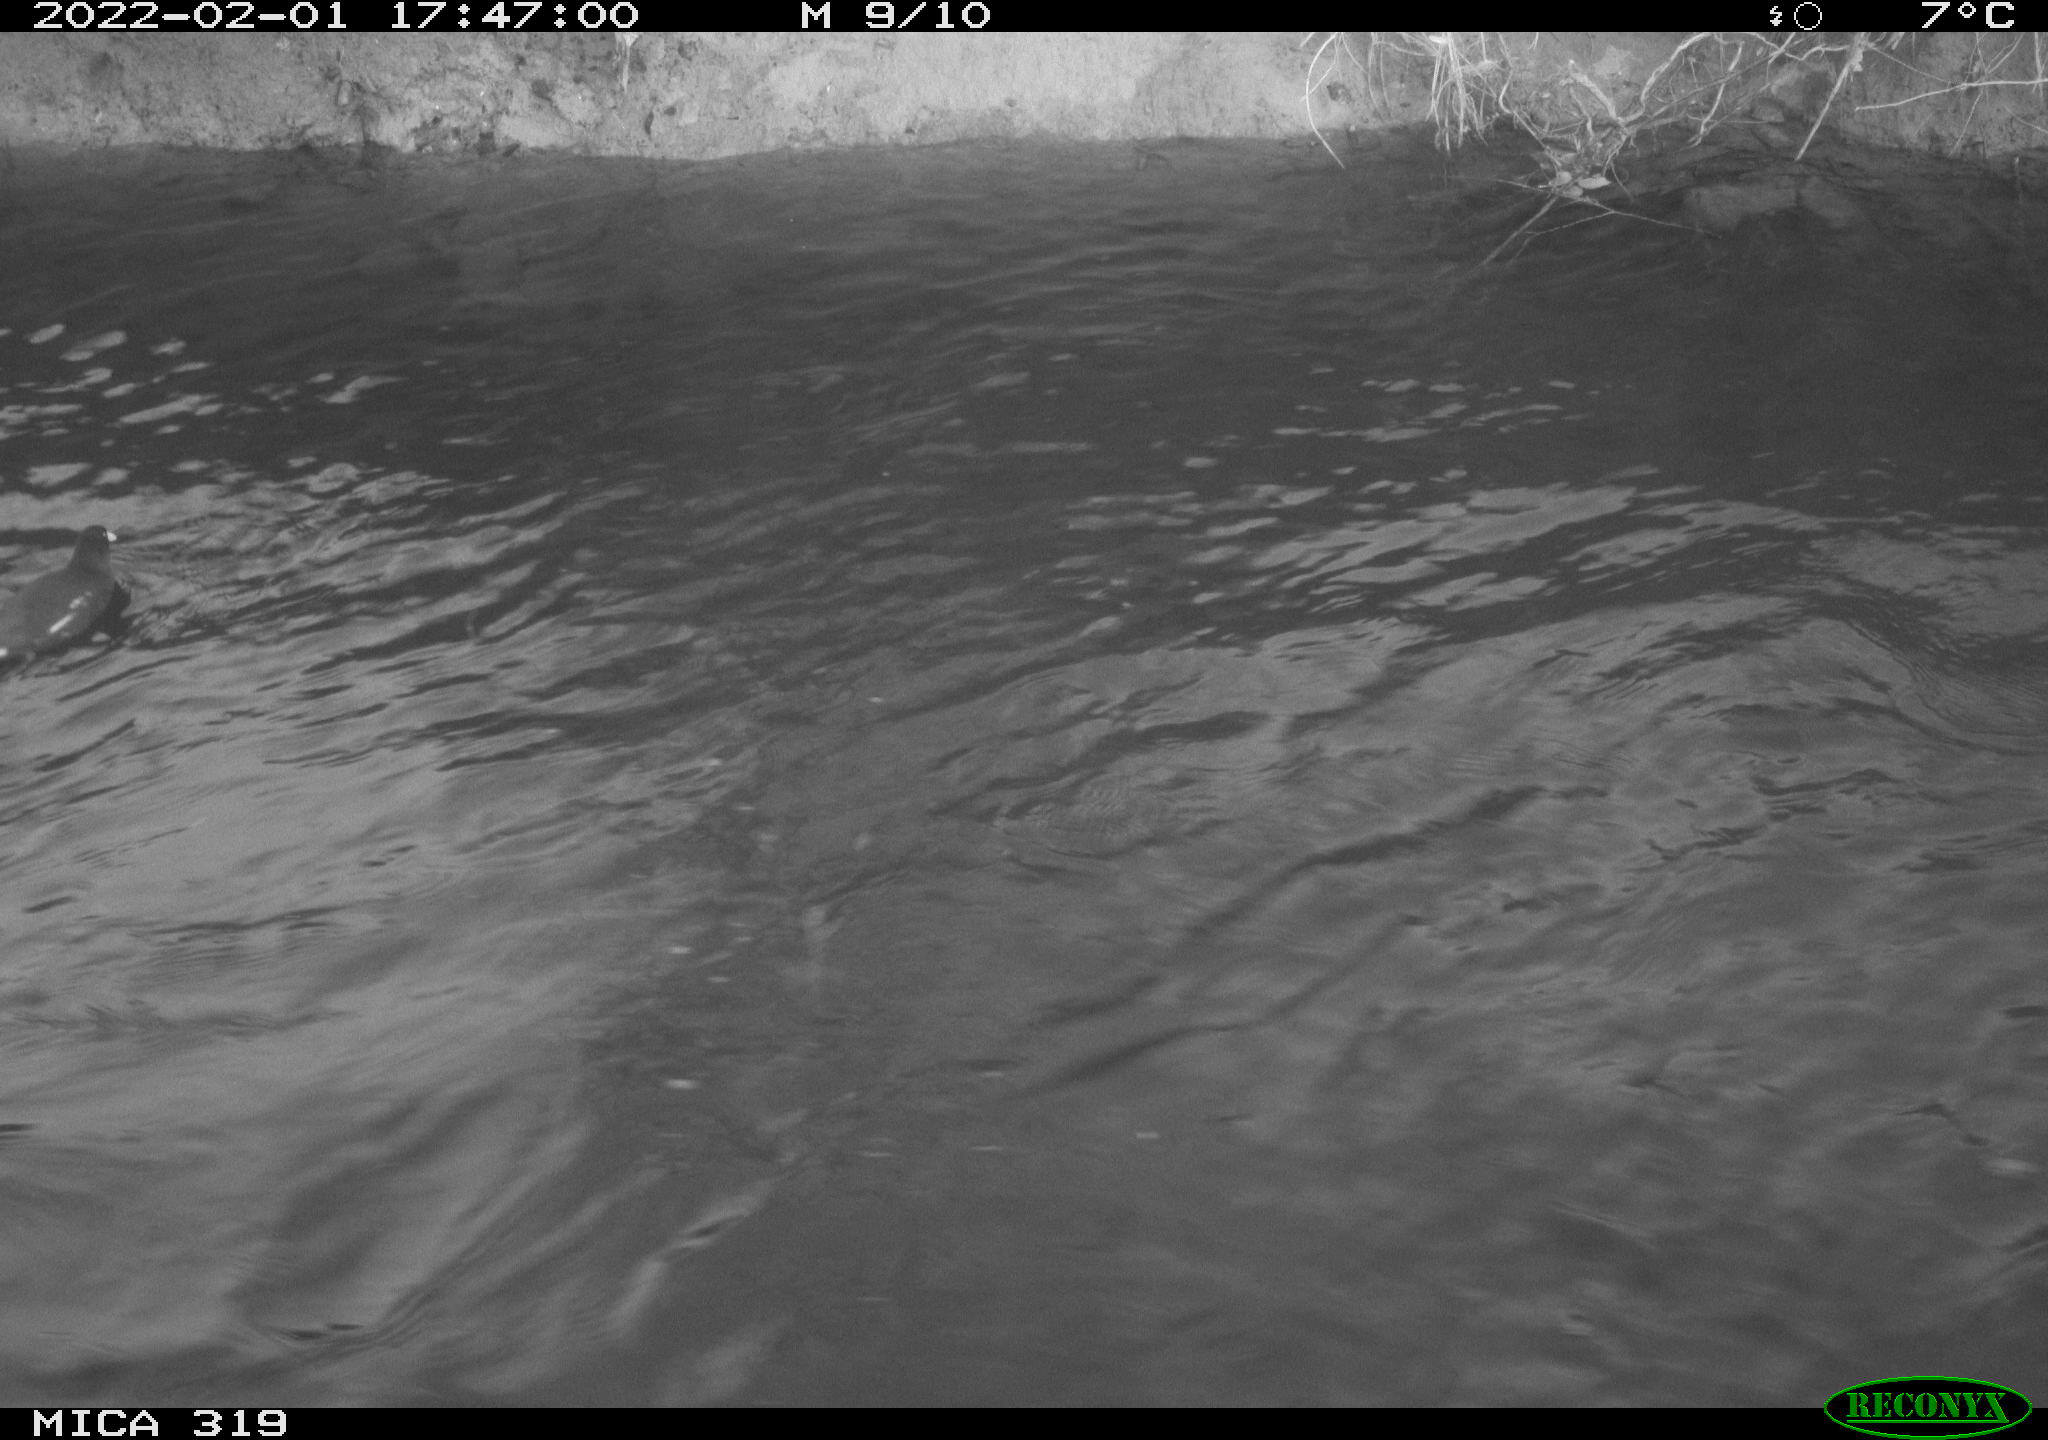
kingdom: Animalia
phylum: Chordata
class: Aves
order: Gruiformes
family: Rallidae
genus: Gallinula
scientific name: Gallinula chloropus
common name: Common moorhen
